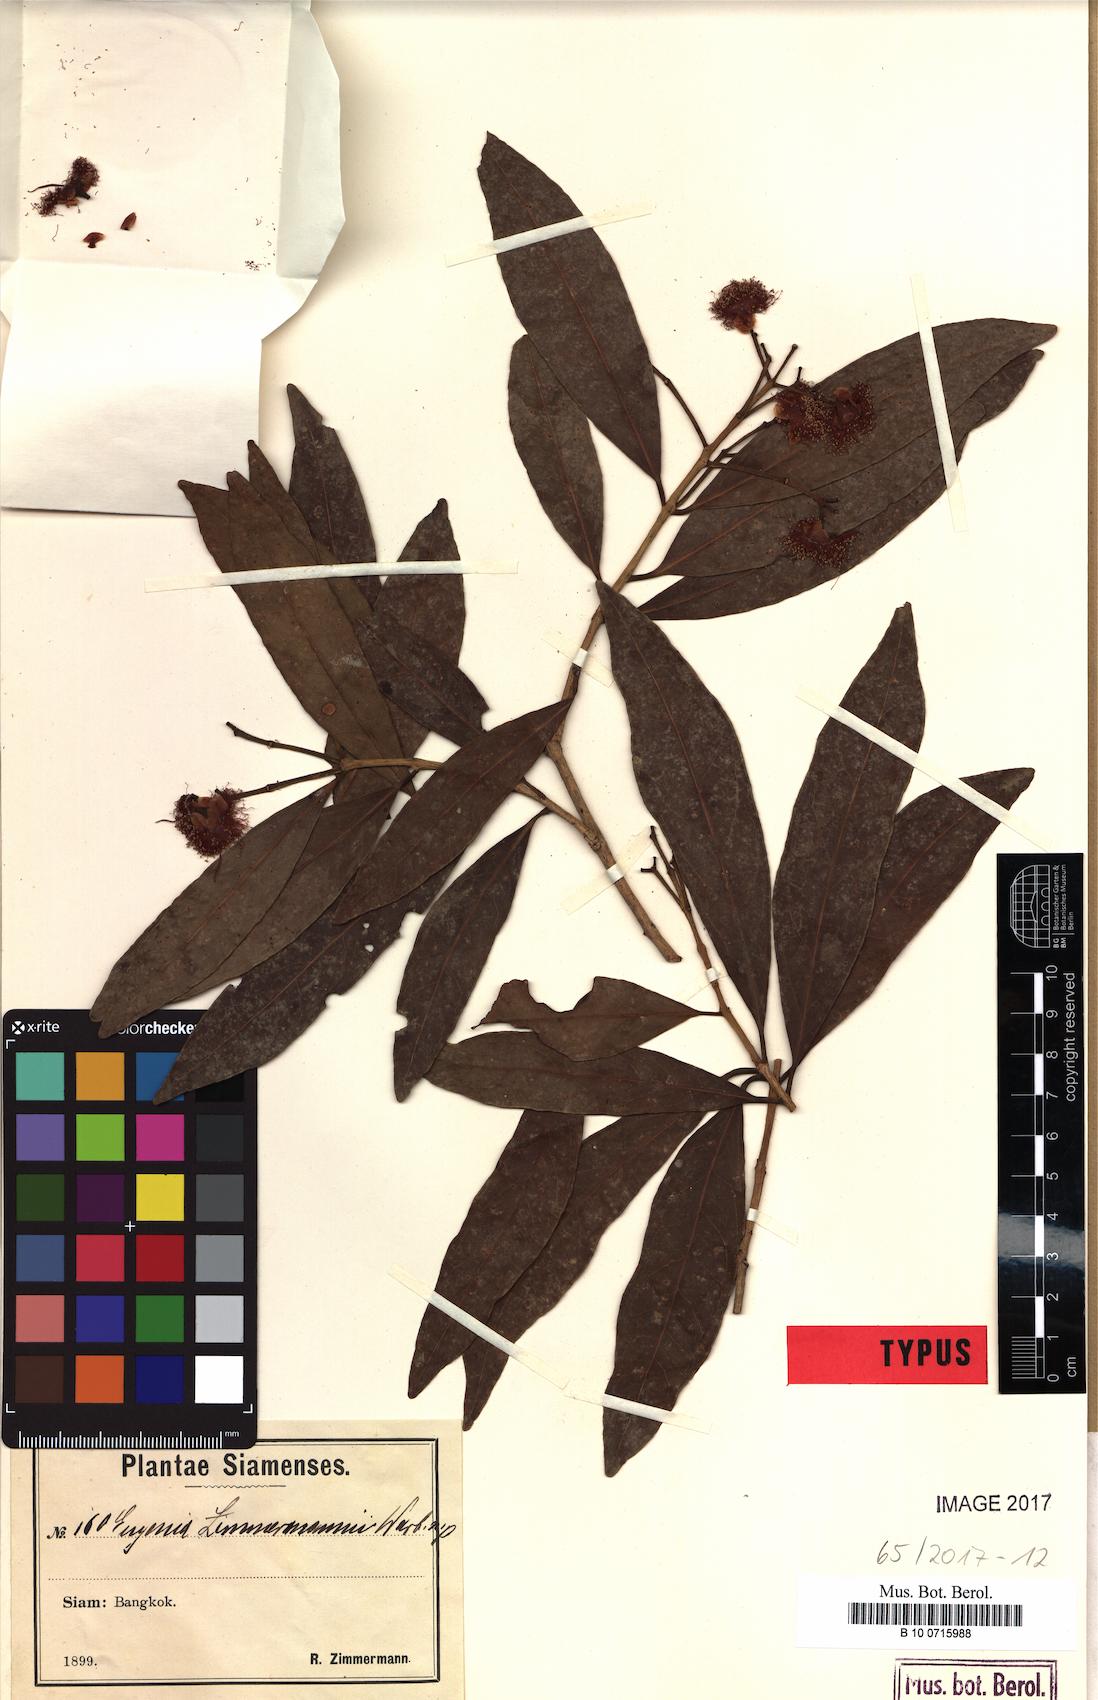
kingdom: Plantae
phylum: Tracheophyta
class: Magnoliopsida
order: Myrtales
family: Myrtaceae
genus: Syzygium
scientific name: Syzygium zimmermannii
